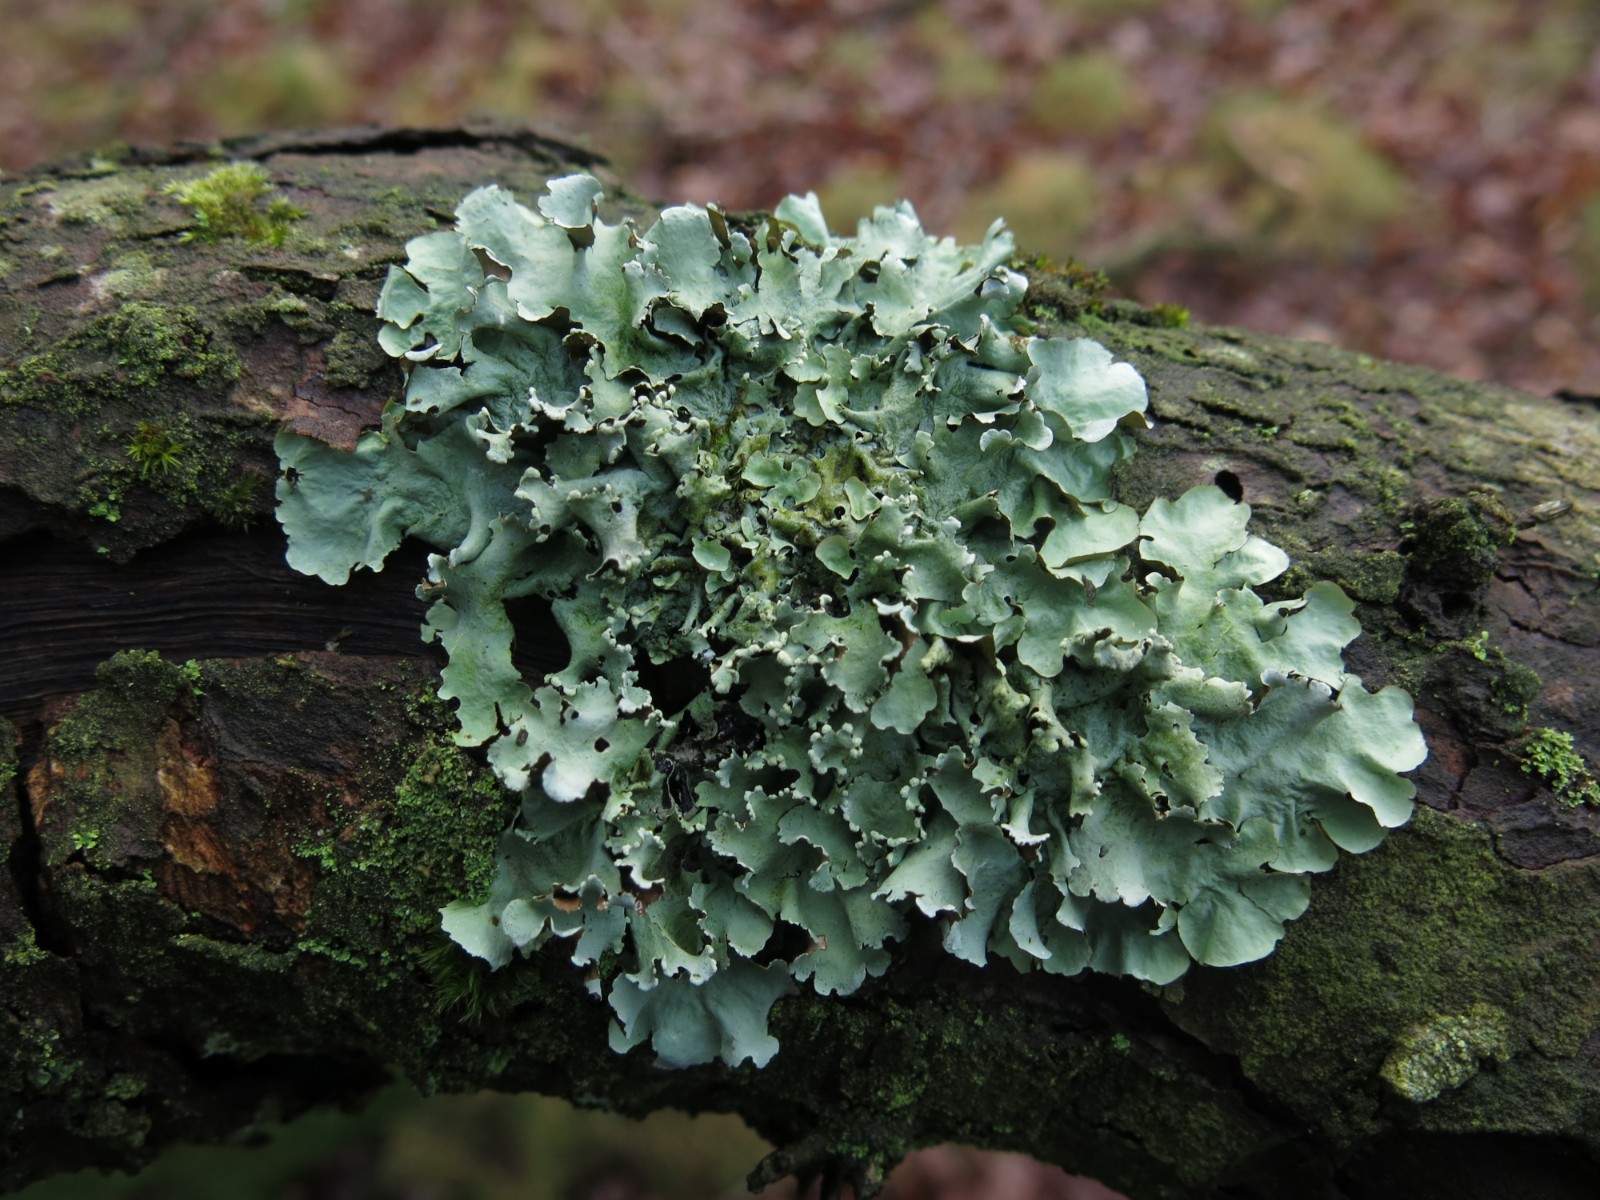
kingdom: Fungi
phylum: Ascomycota
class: Lecanoromycetes
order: Lecanorales
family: Parmeliaceae
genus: Parmotrema
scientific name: Parmotrema perlatum
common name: trådet skållav
